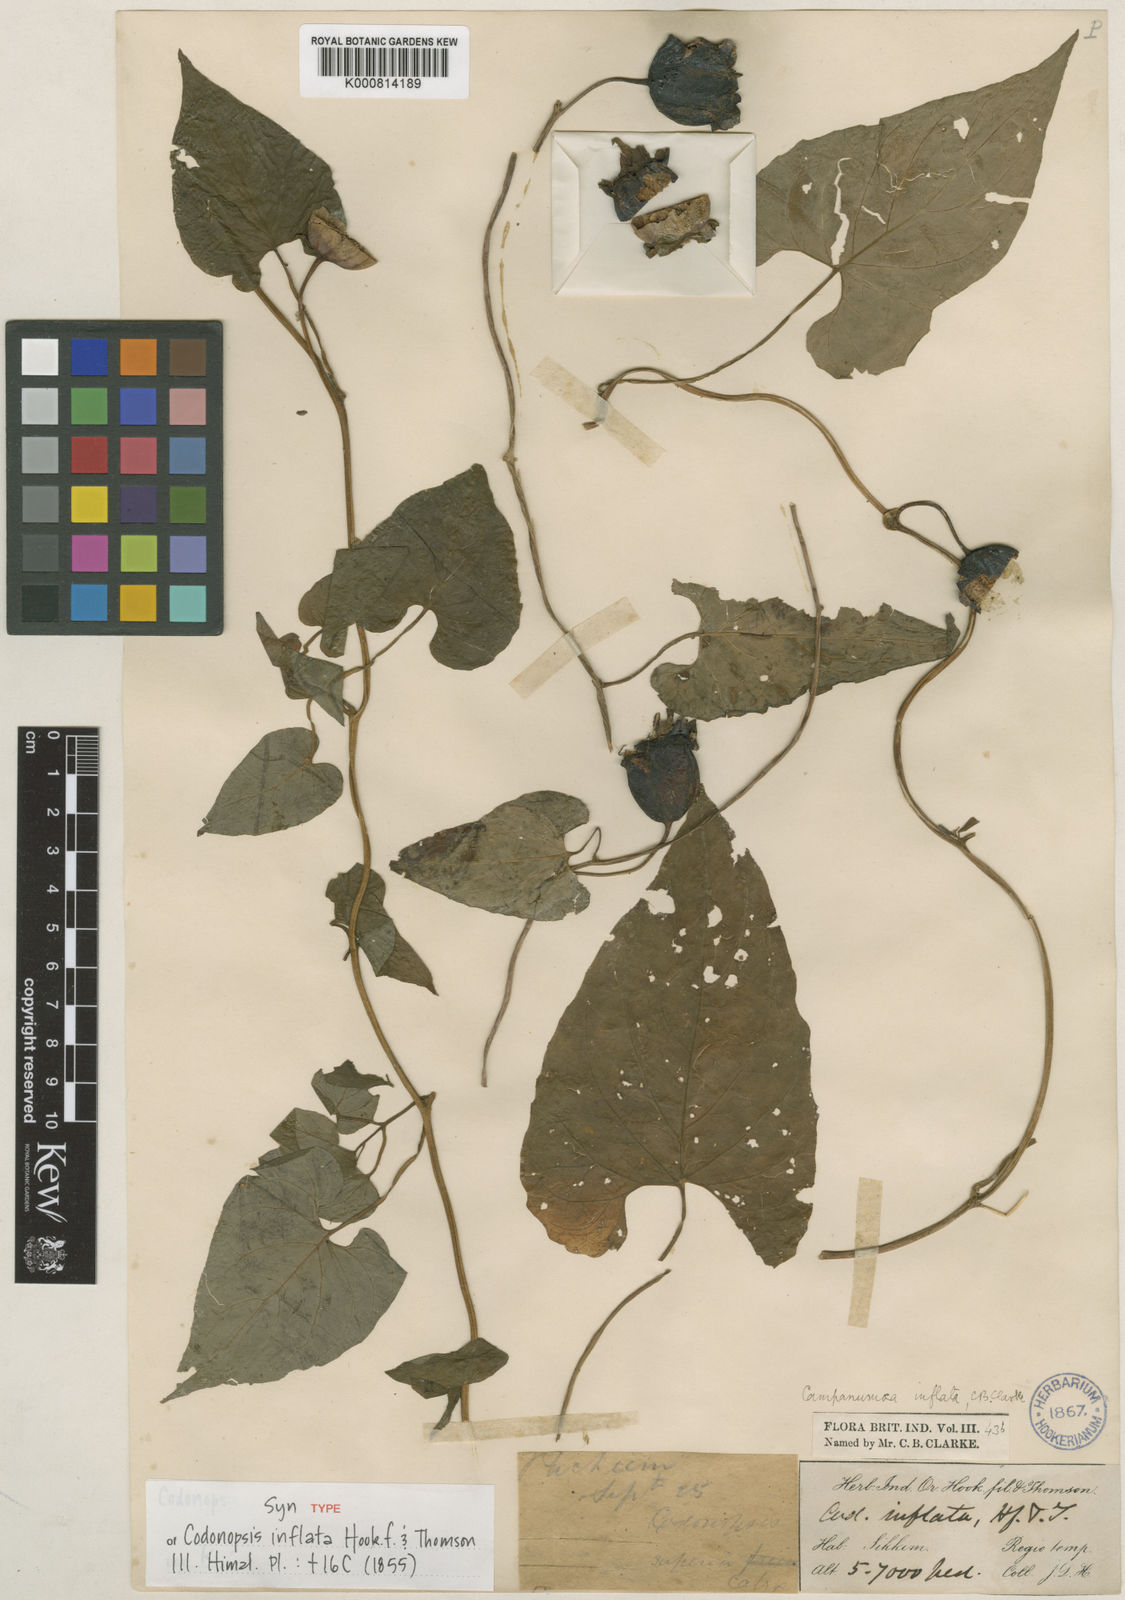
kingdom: Plantae
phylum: Tracheophyta
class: Magnoliopsida
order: Asterales
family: Campanulaceae
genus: Codonopsis
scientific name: Codonopsis inflata
